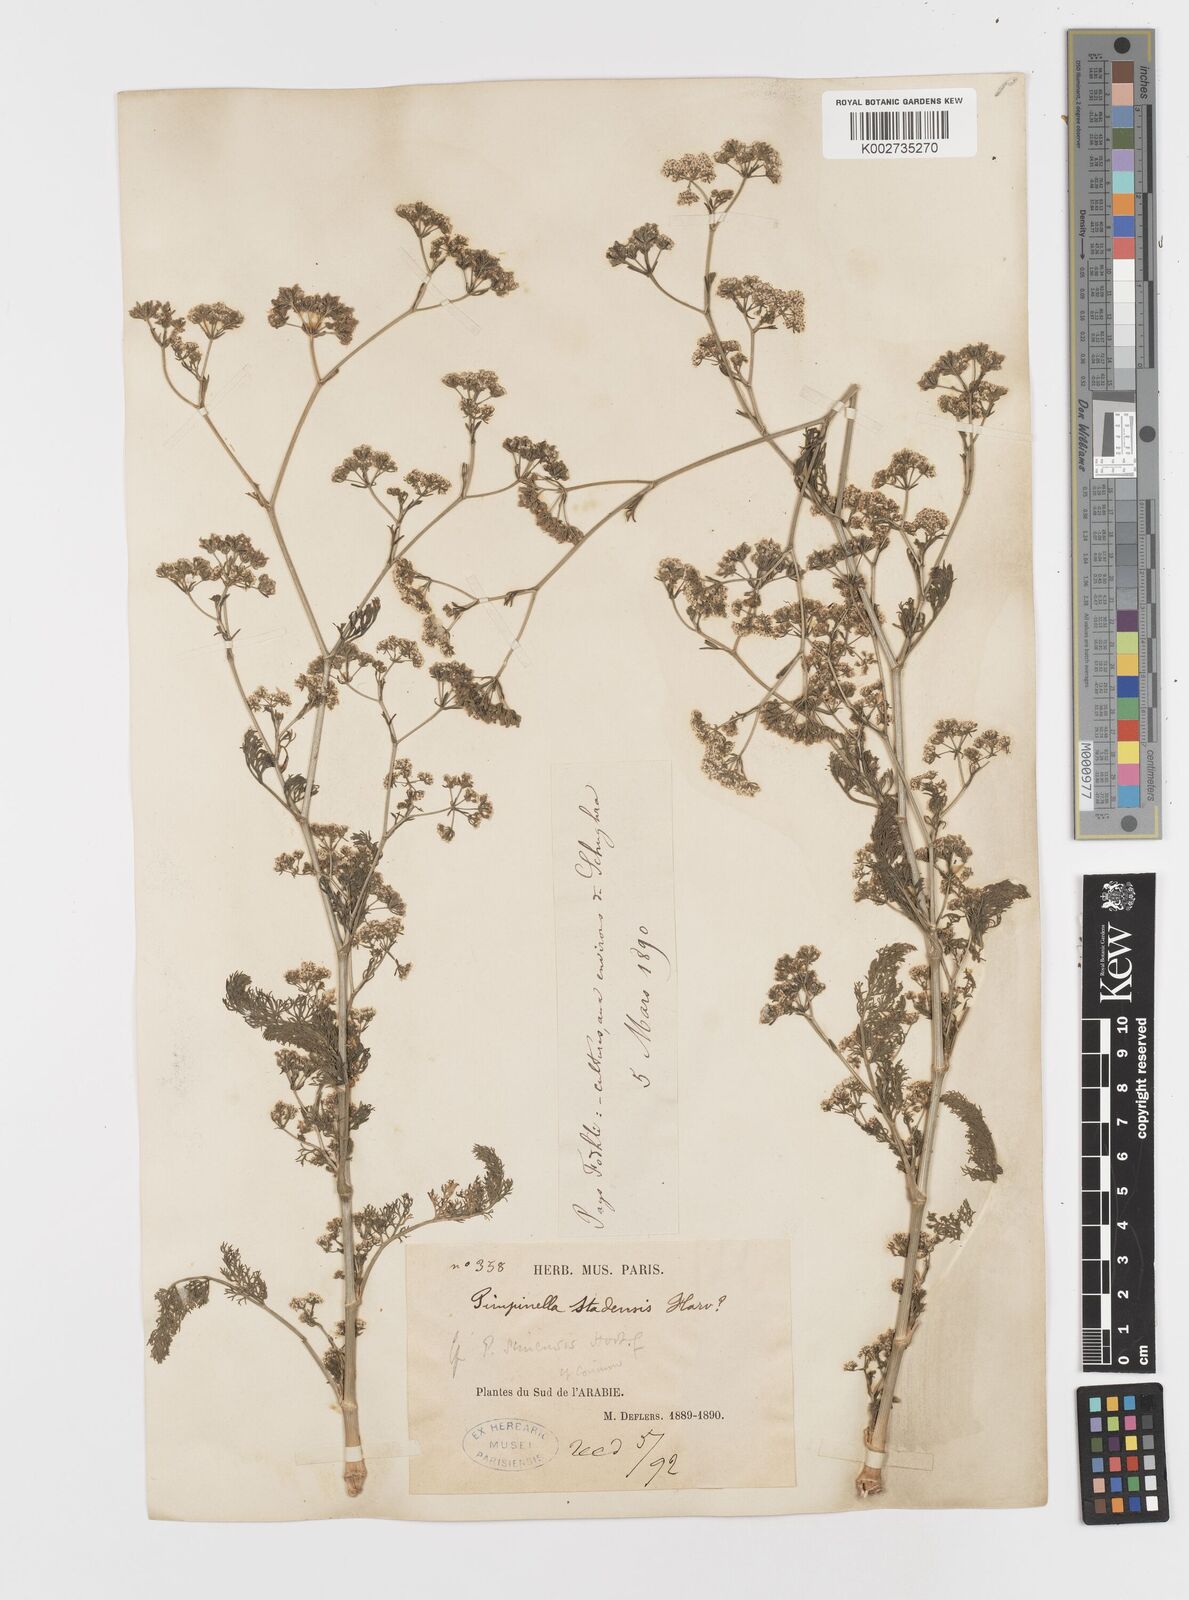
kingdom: Plantae
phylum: Tracheophyta
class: Magnoliopsida
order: Apiales
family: Apiaceae
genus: Trachyspermum
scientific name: Trachyspermum ammi
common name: Ajowan
